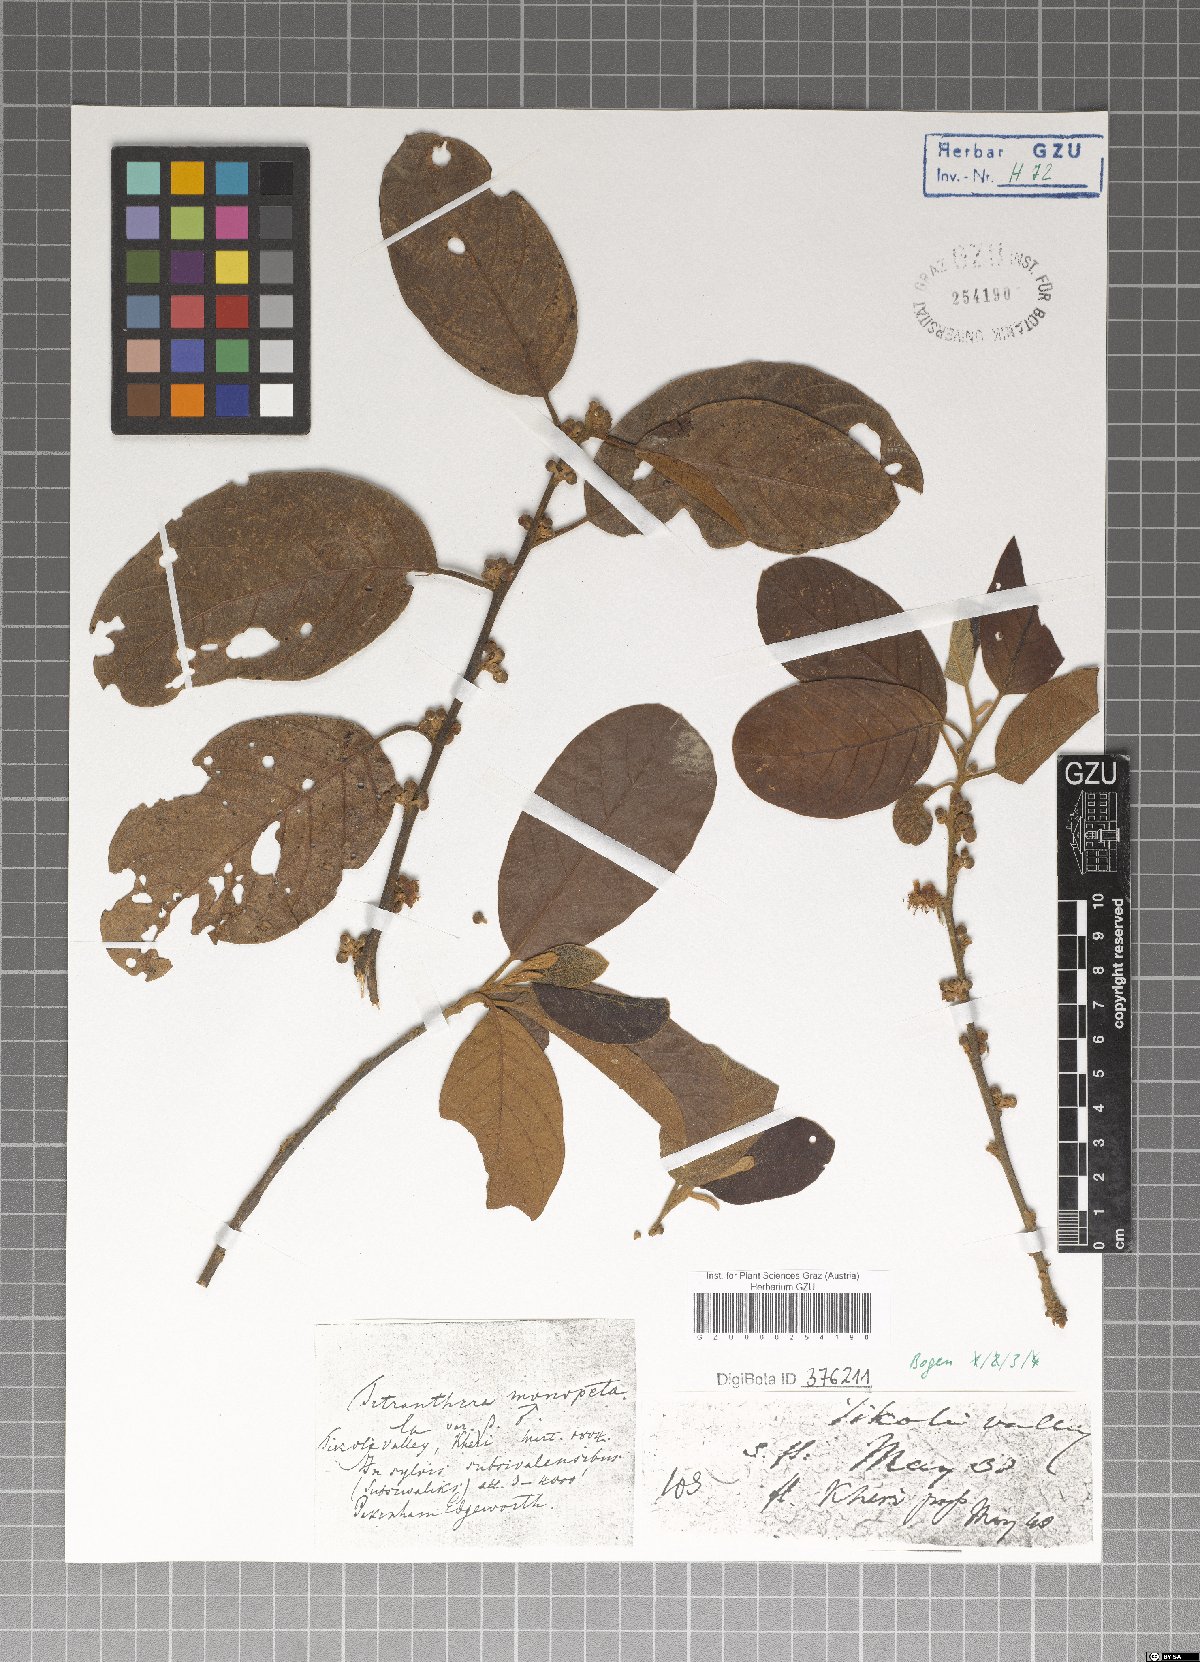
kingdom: Plantae
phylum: Tracheophyta
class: Magnoliopsida
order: Laurales
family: Lauraceae
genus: Litsea
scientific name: Litsea monopetala
